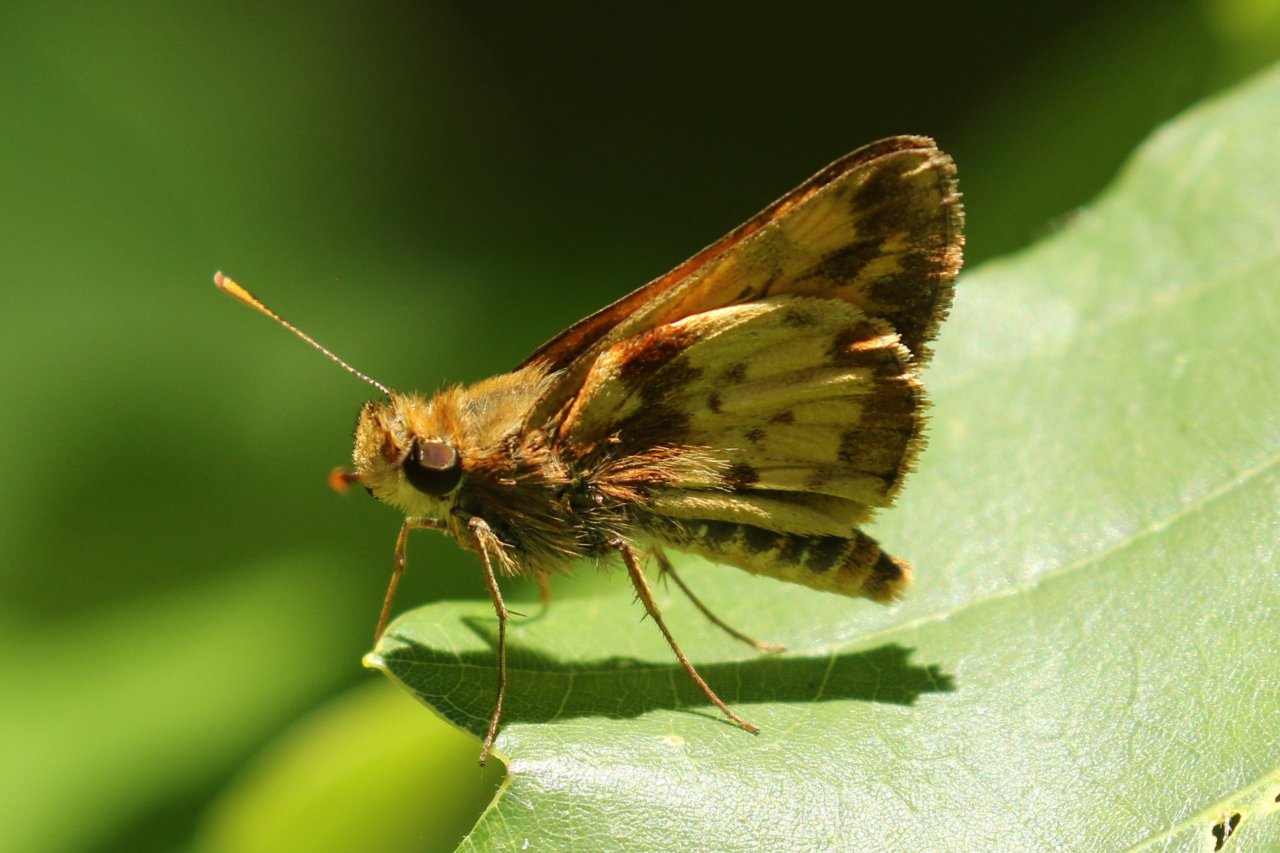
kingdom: Animalia
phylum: Arthropoda
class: Insecta
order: Lepidoptera
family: Hesperiidae
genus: Lon
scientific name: Lon zabulon
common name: Zabulon Skipper
